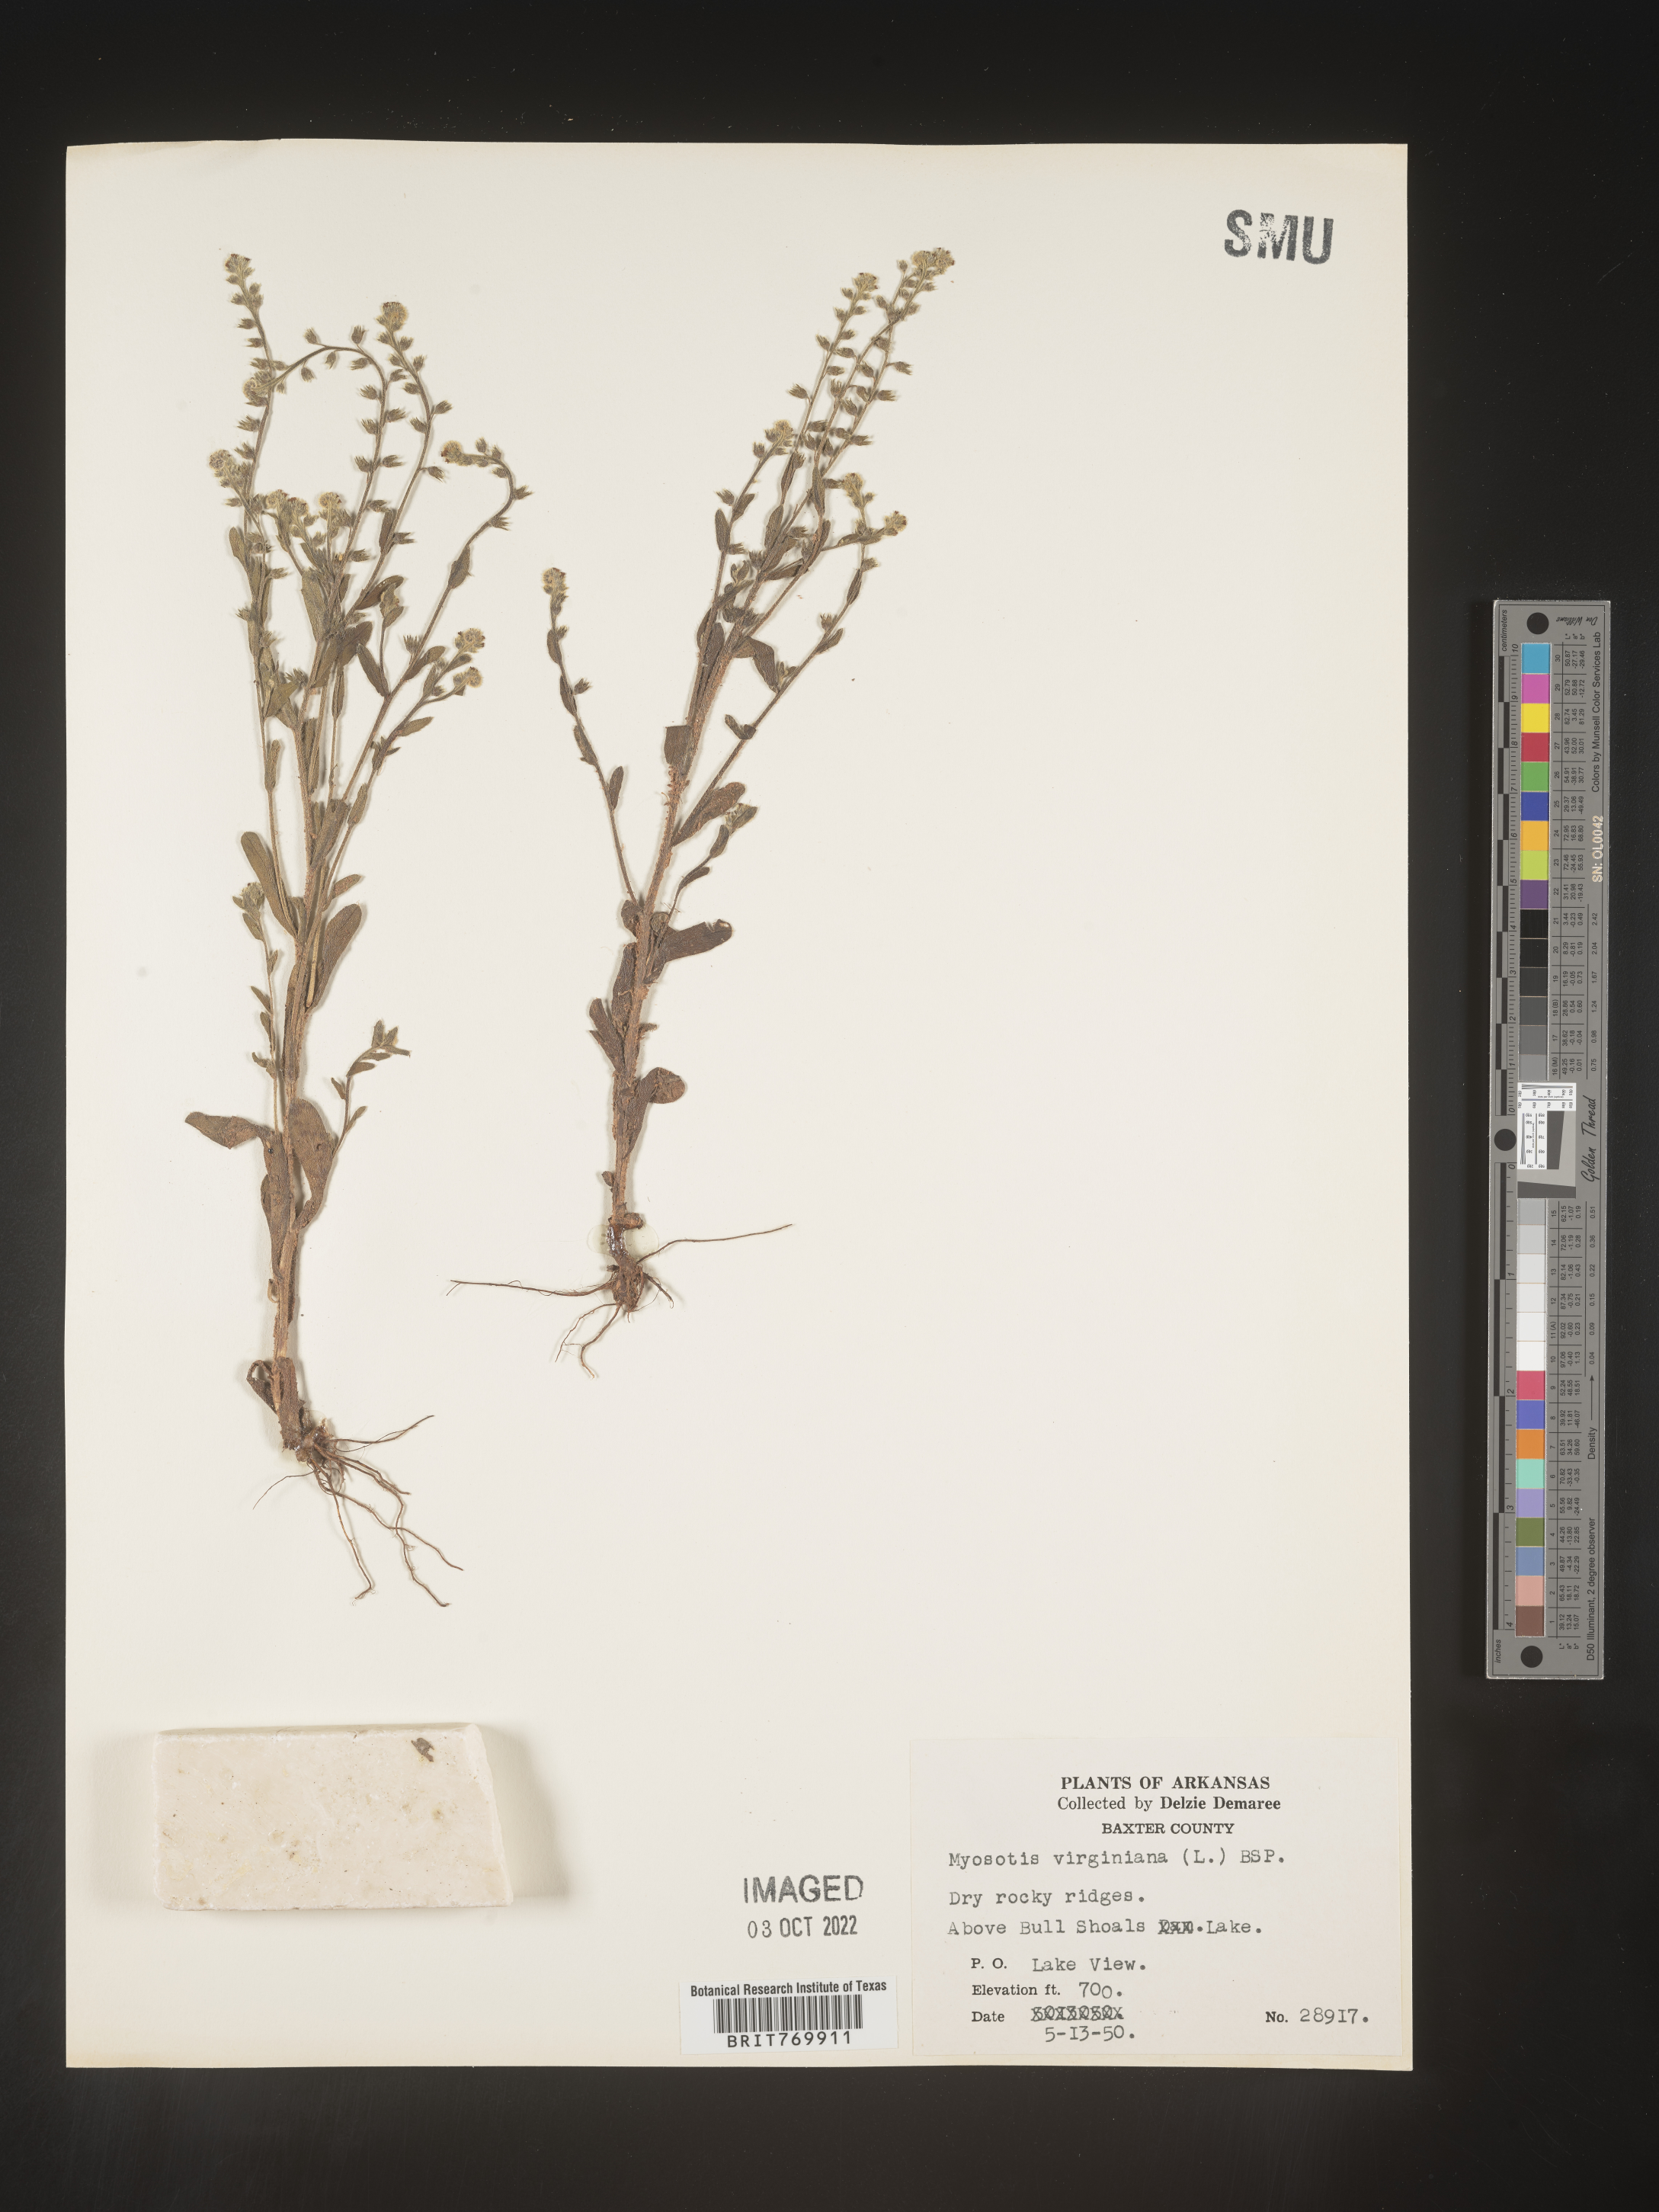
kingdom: Plantae
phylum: Tracheophyta
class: Magnoliopsida
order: Boraginales
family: Boraginaceae
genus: Myosotis
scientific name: Myosotis verna
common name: Early forget-me-not
